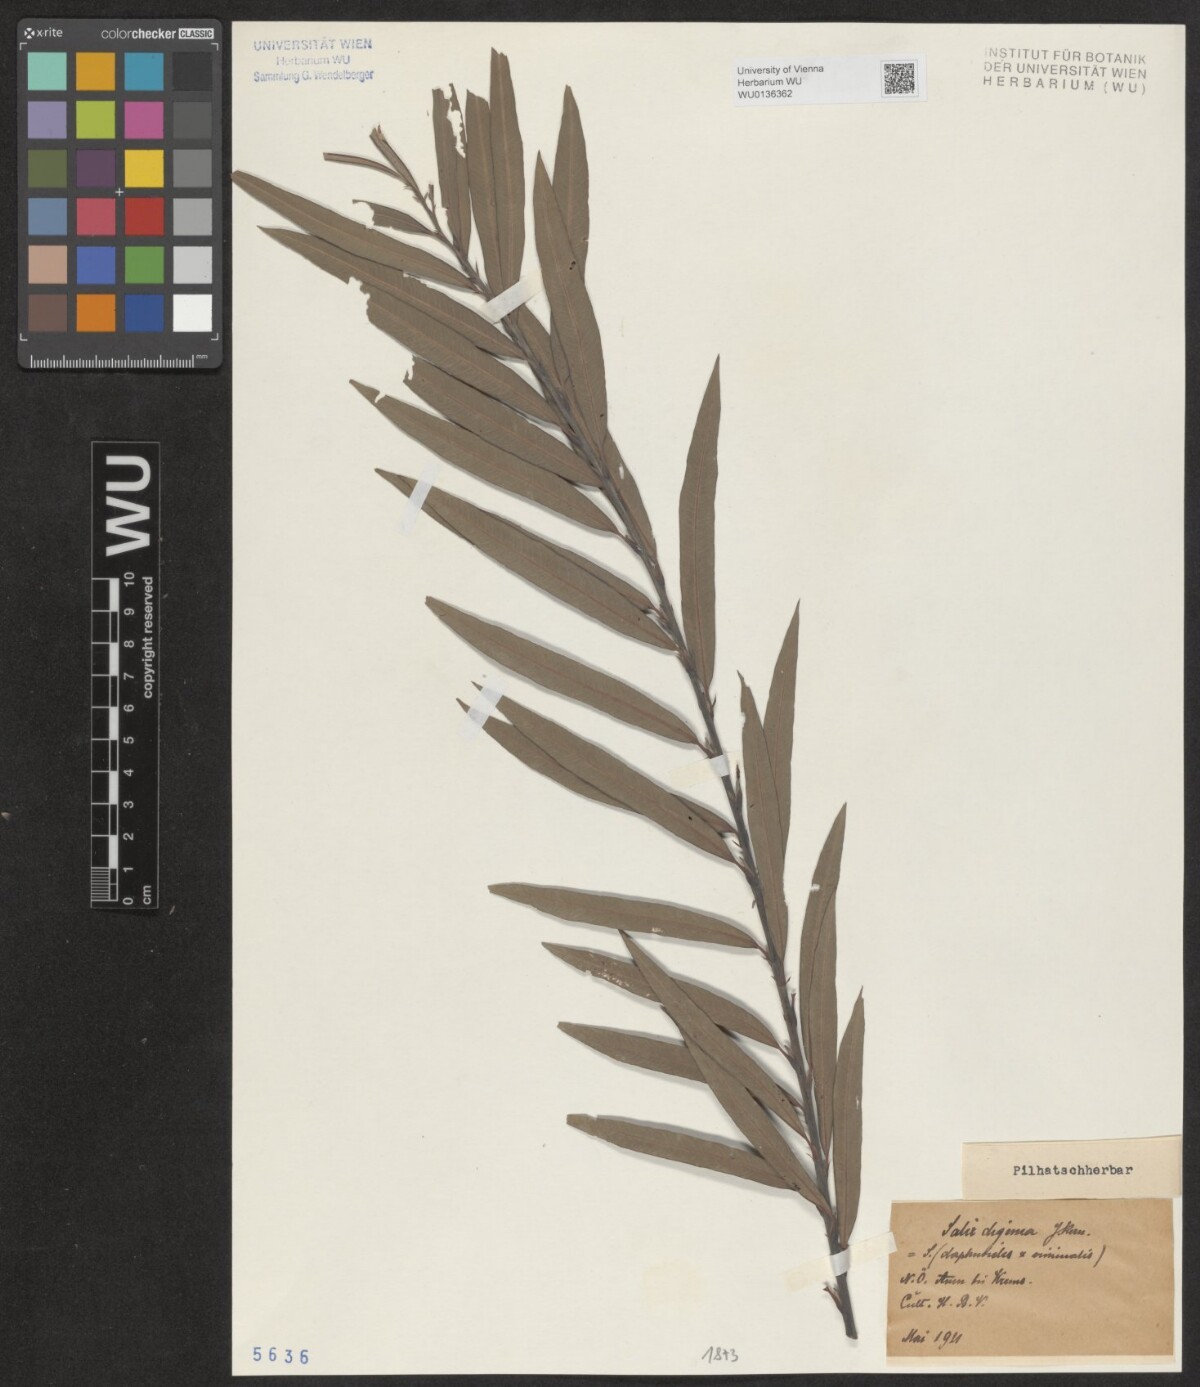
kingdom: Plantae
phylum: Tracheophyta
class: Magnoliopsida
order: Malpighiales
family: Salicaceae
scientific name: Salicaceae
